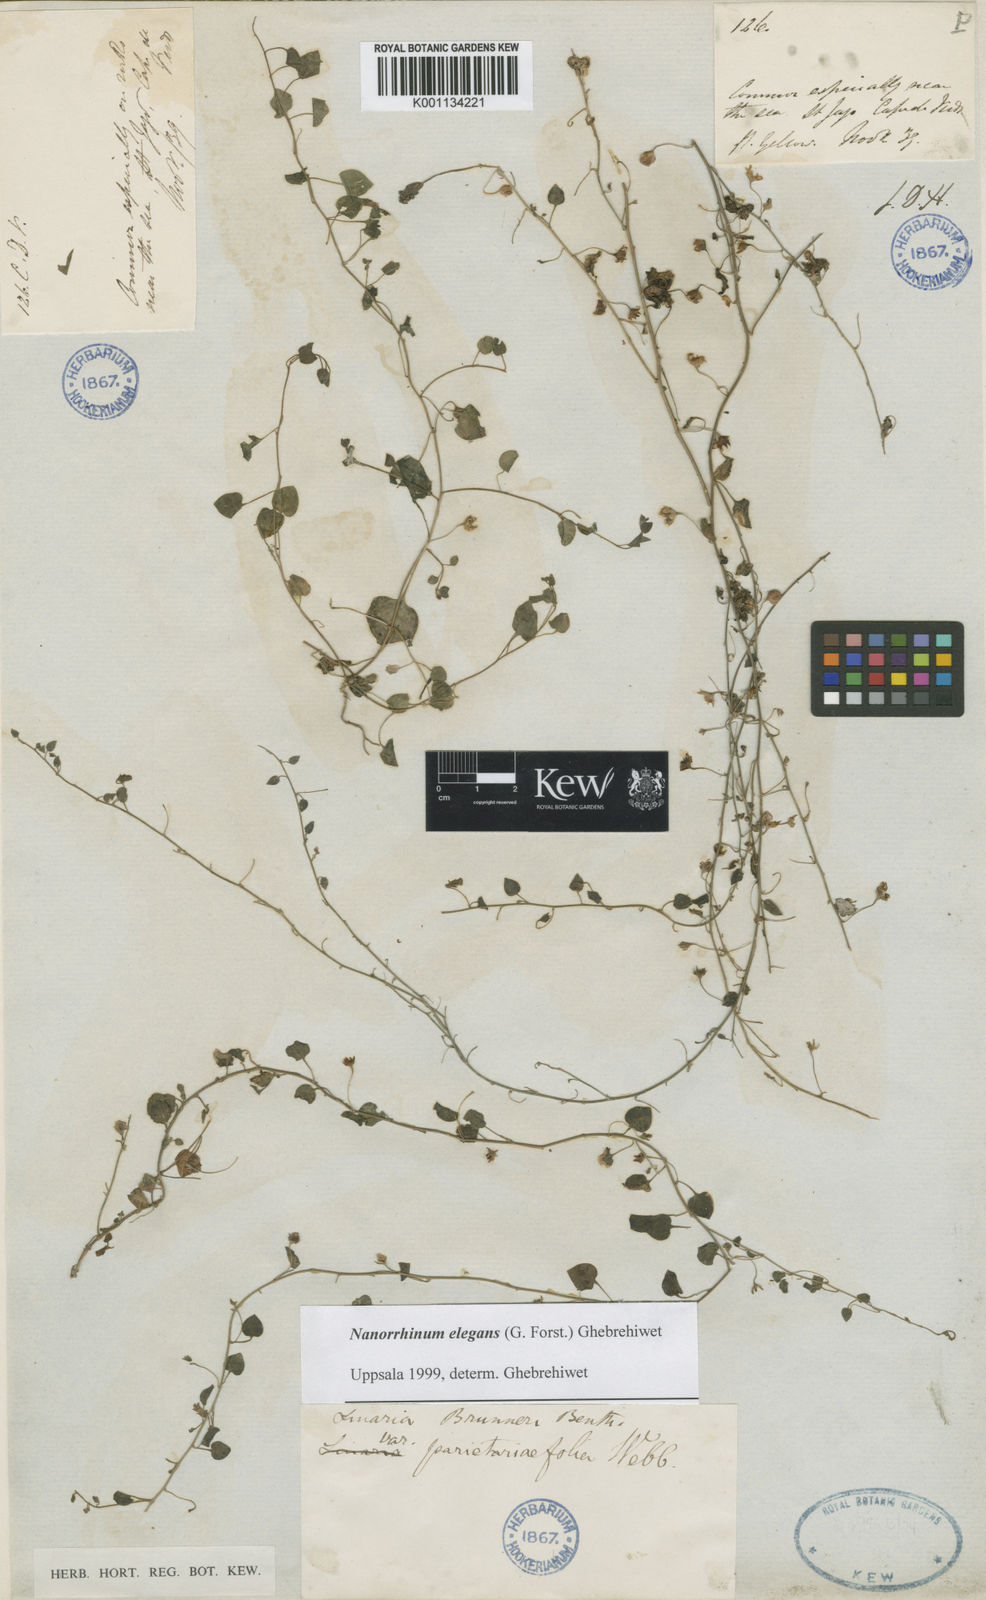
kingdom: Plantae
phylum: Tracheophyta
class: Magnoliopsida
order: Lamiales
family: Plantaginaceae
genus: Nanorrhinum
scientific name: Nanorrhinum elegans
